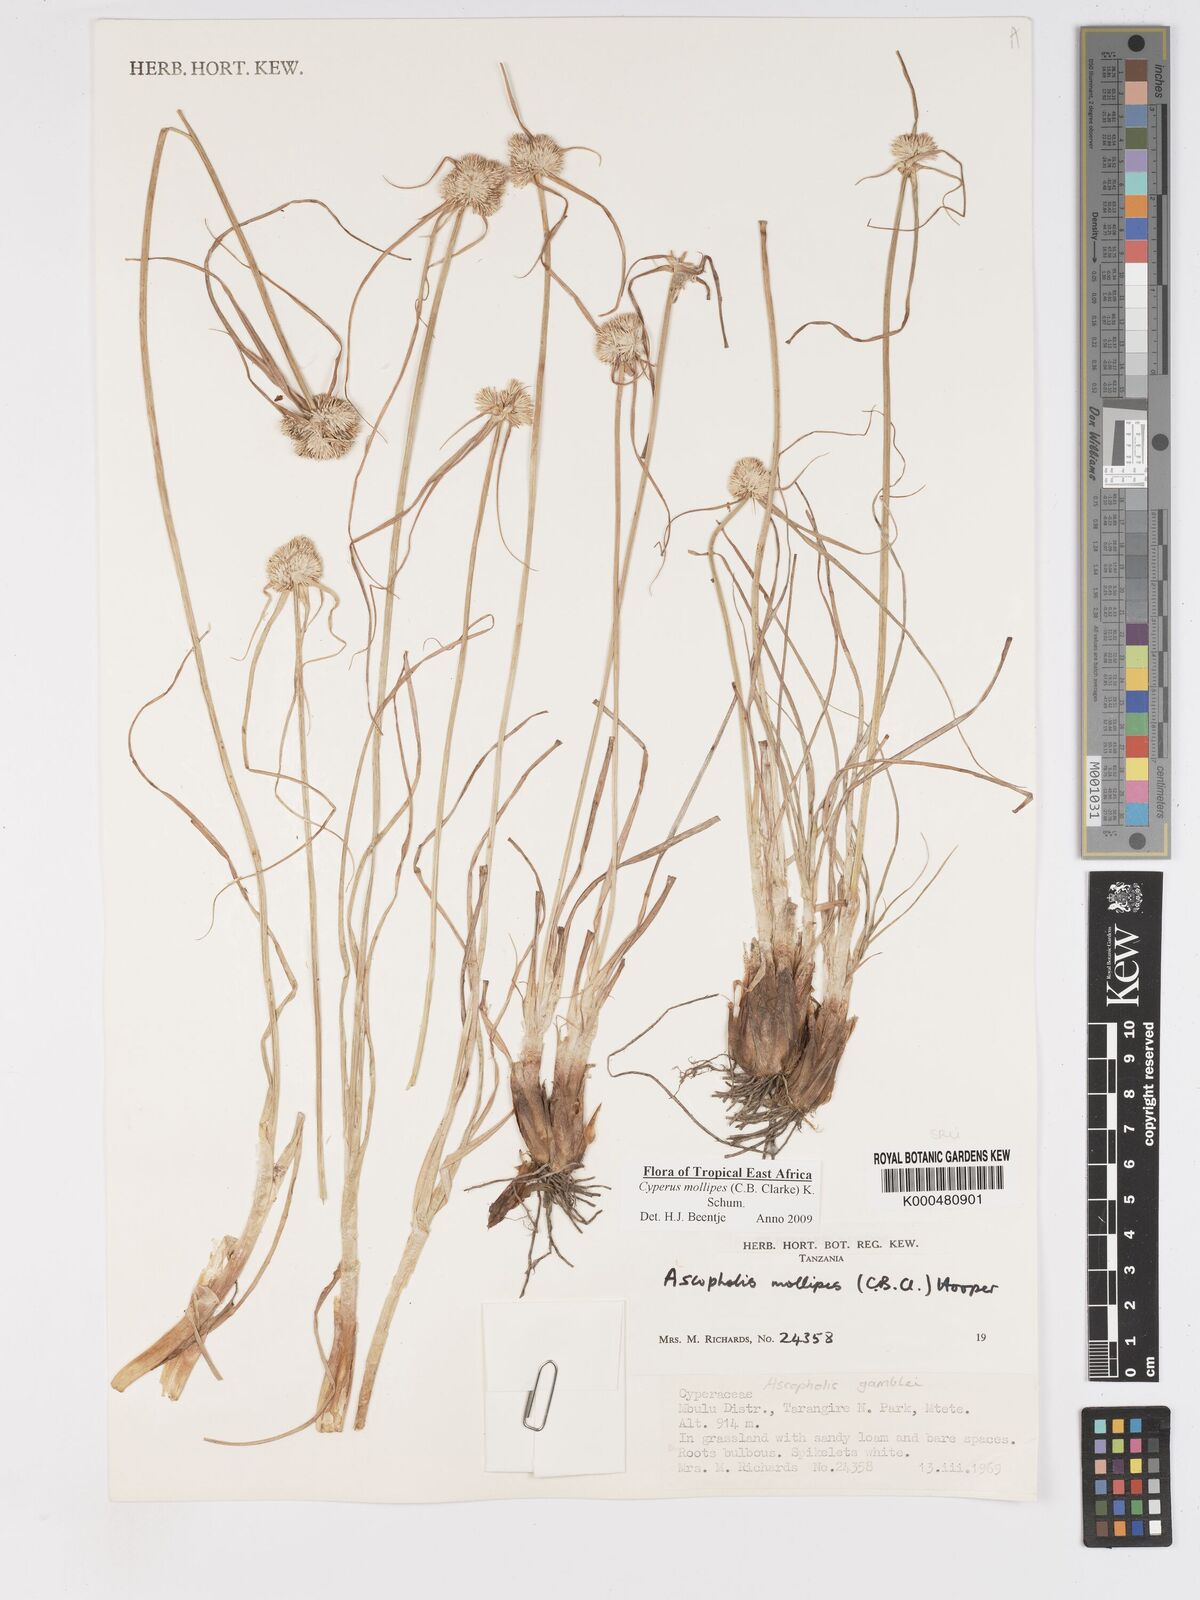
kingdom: Plantae
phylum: Tracheophyta
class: Liliopsida
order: Poales
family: Cyperaceae
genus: Cyperus
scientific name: Cyperus mollipes
